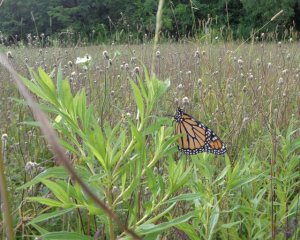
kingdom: Animalia
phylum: Arthropoda
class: Insecta
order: Lepidoptera
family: Nymphalidae
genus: Danaus
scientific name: Danaus plexippus
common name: Monarch
